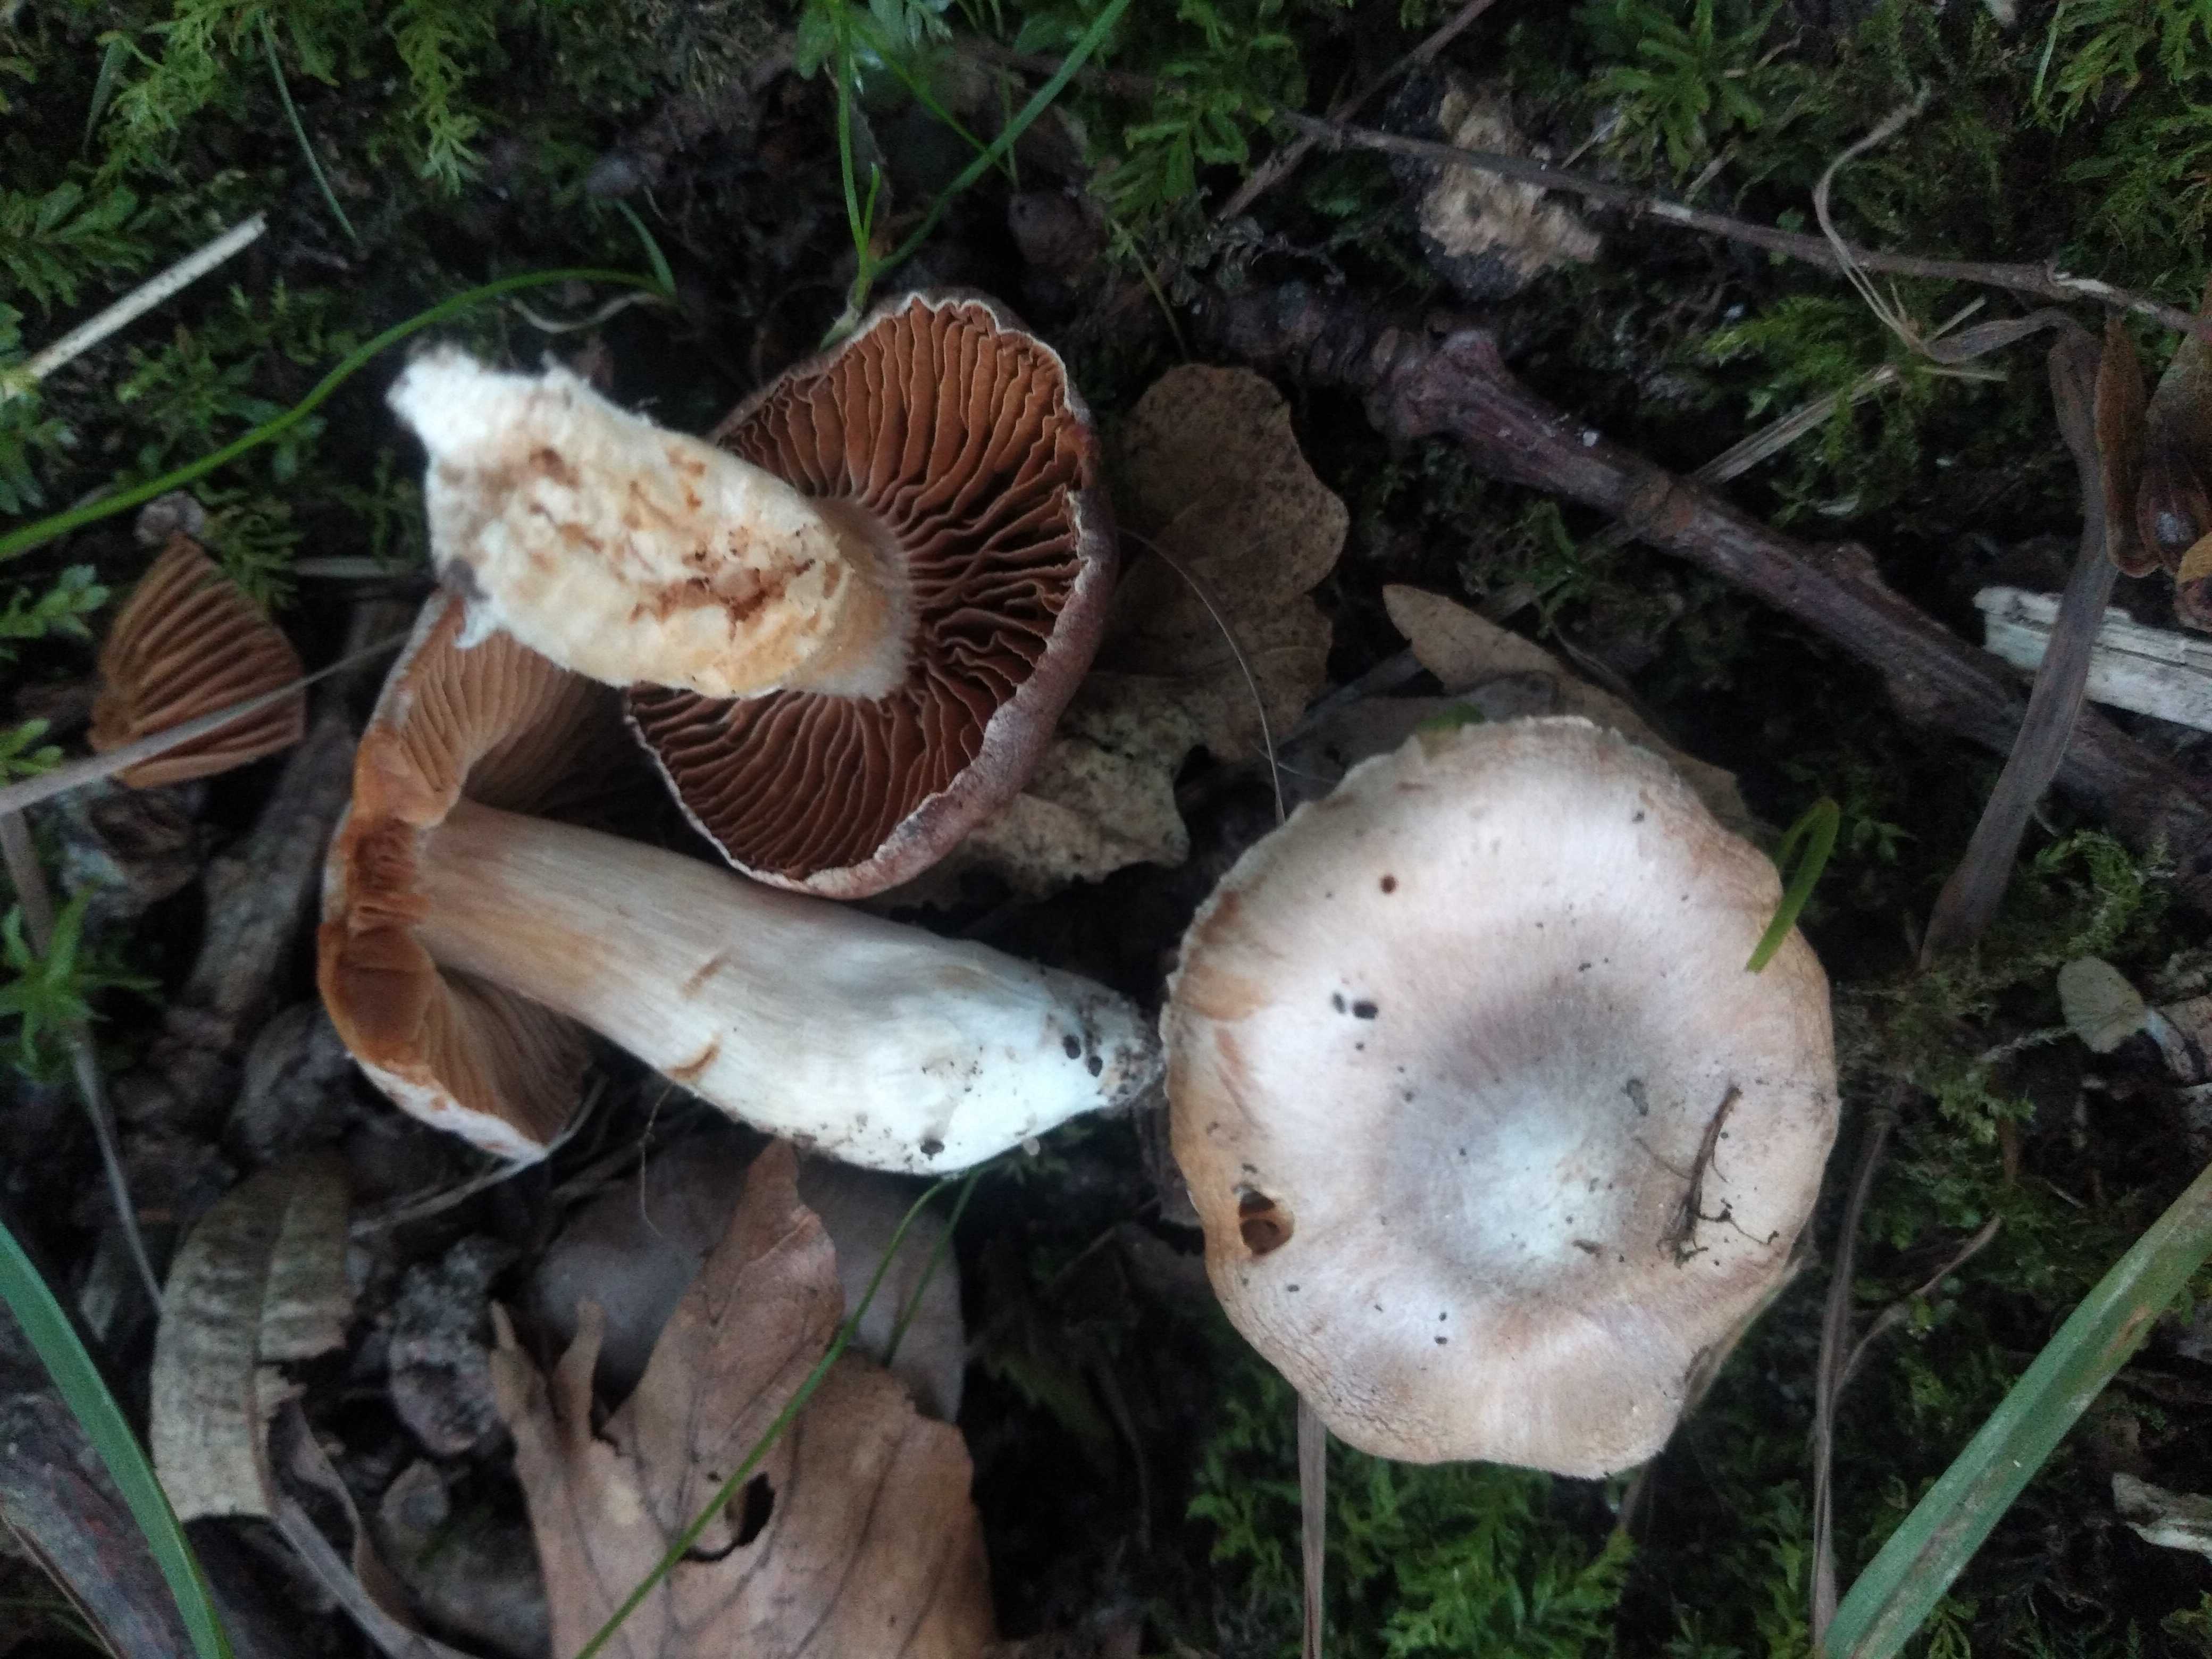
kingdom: Fungi
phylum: Basidiomycota
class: Agaricomycetes
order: Agaricales
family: Cortinariaceae
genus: Cortinarius
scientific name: Cortinarius pruinatus
